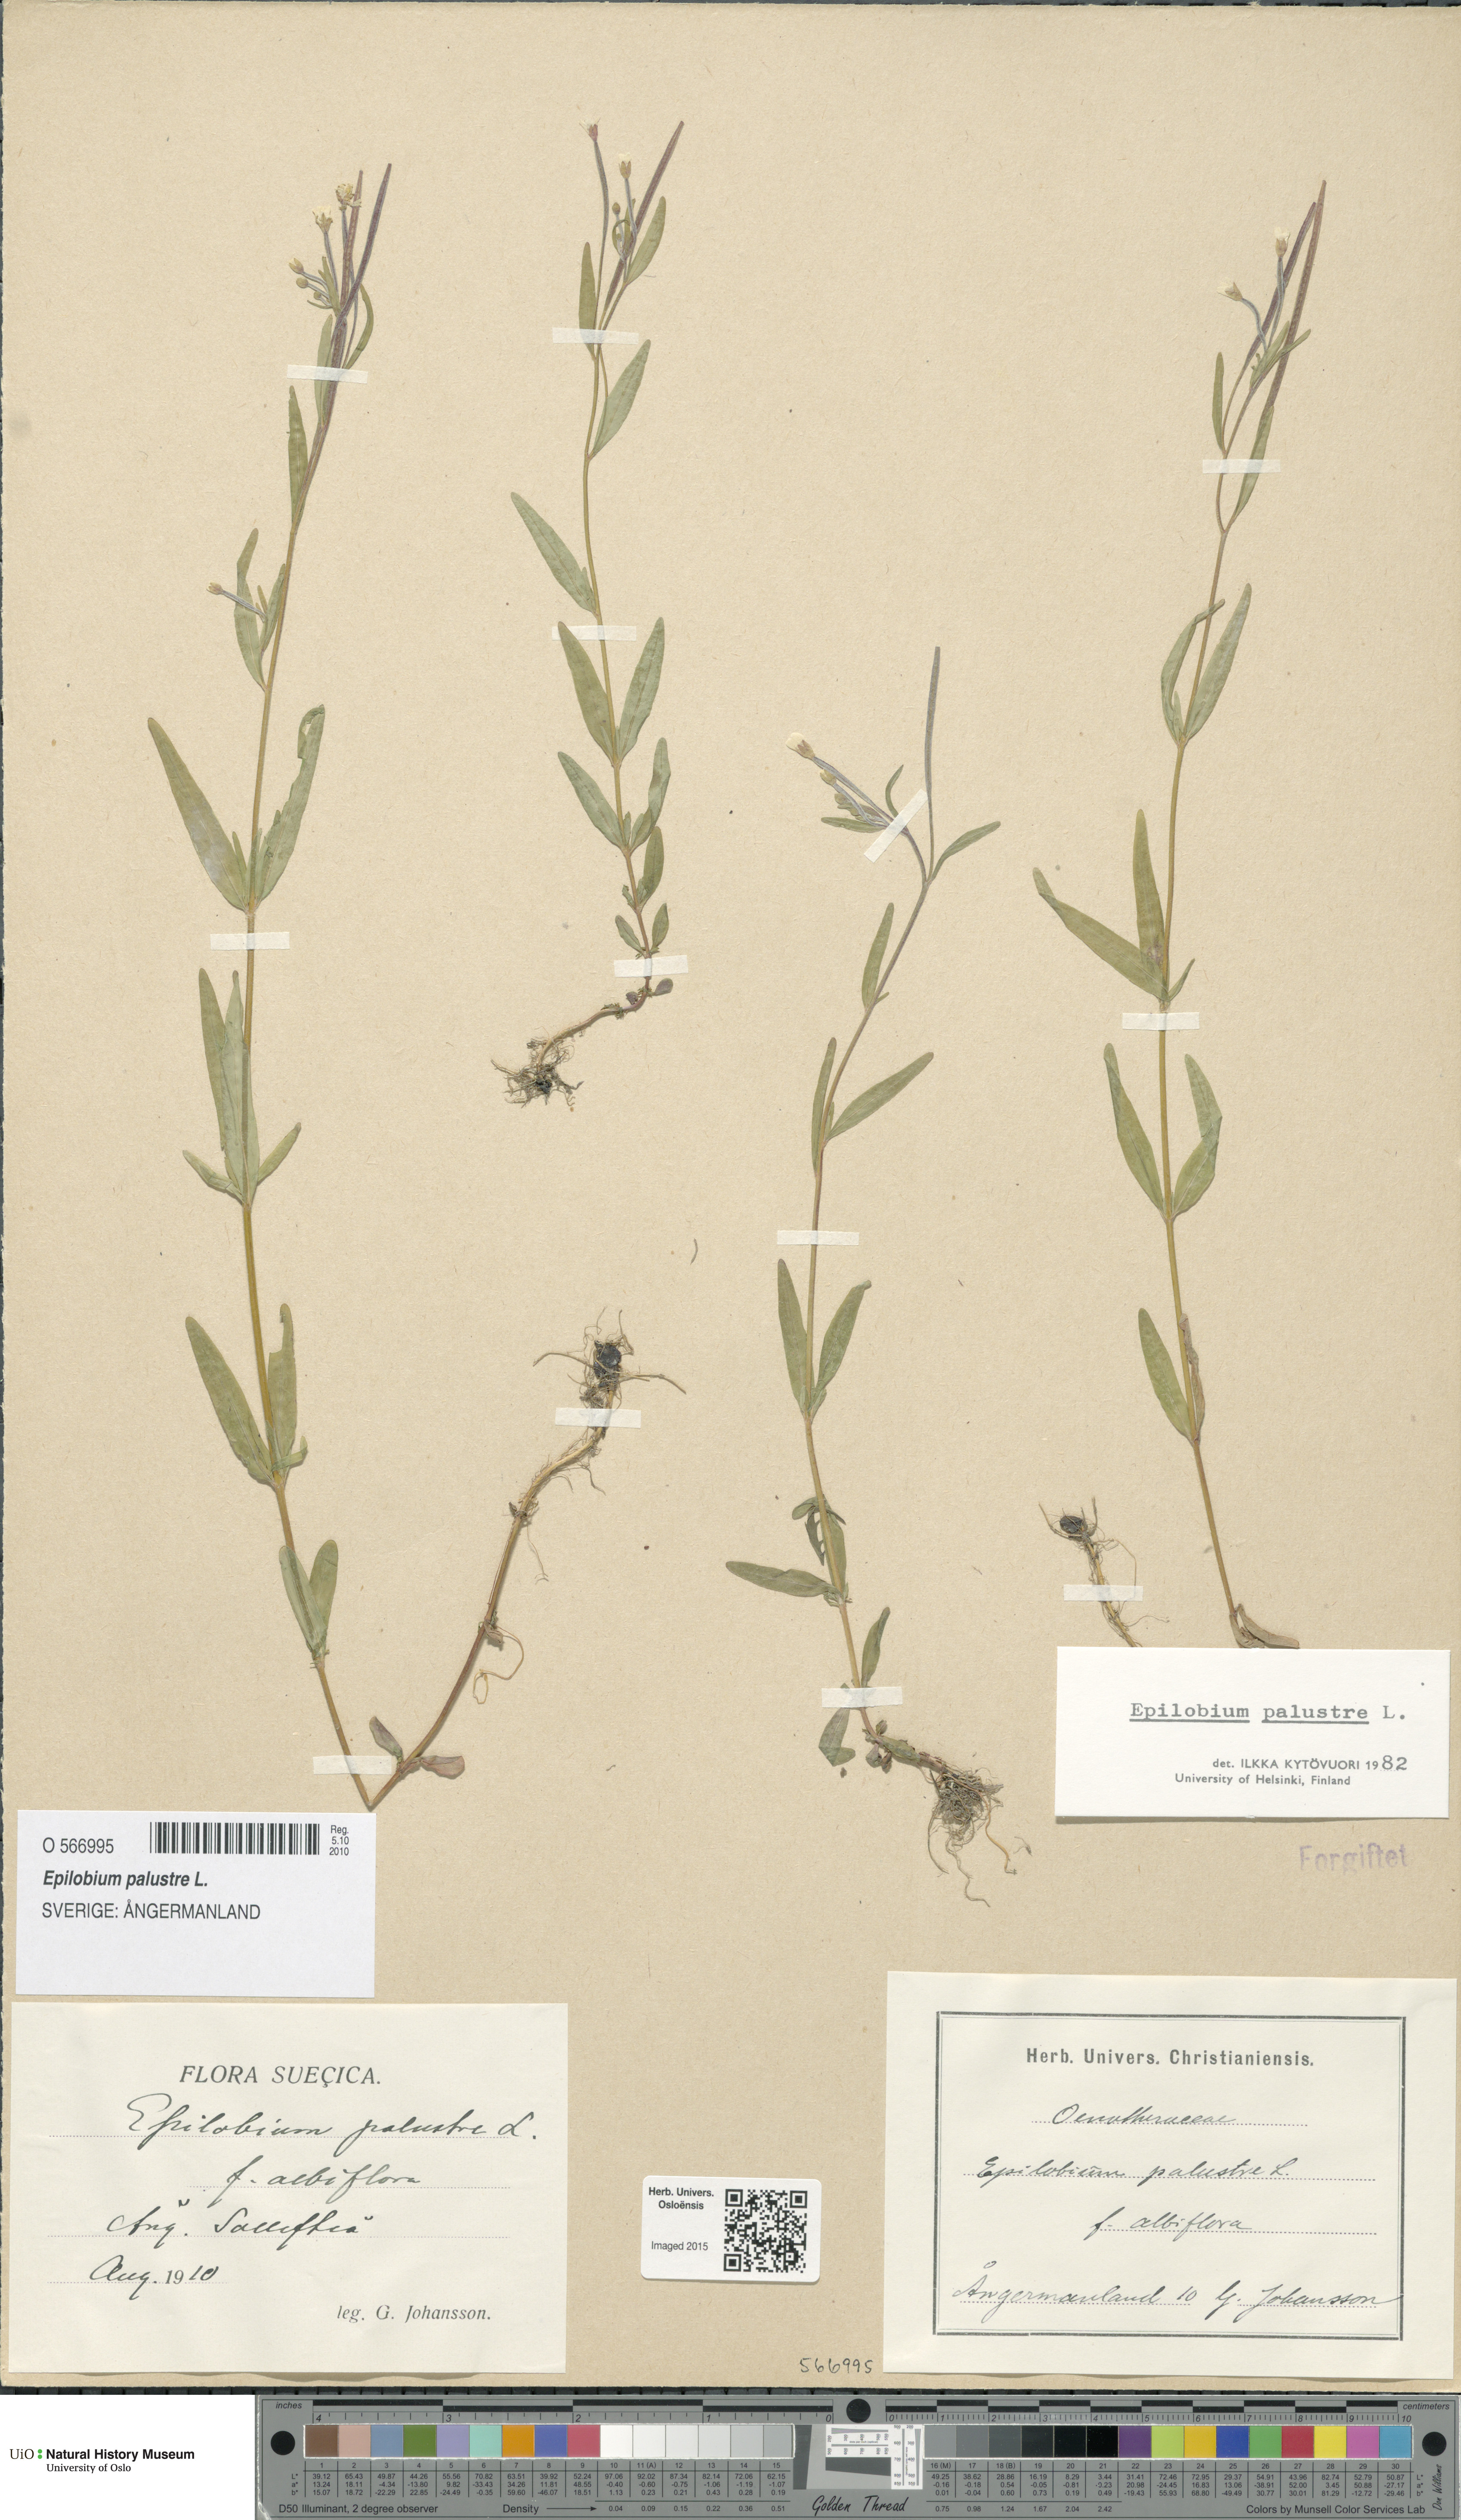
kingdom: Plantae
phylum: Tracheophyta
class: Magnoliopsida
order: Myrtales
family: Onagraceae
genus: Epilobium
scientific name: Epilobium palustre
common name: Marsh willowherb
